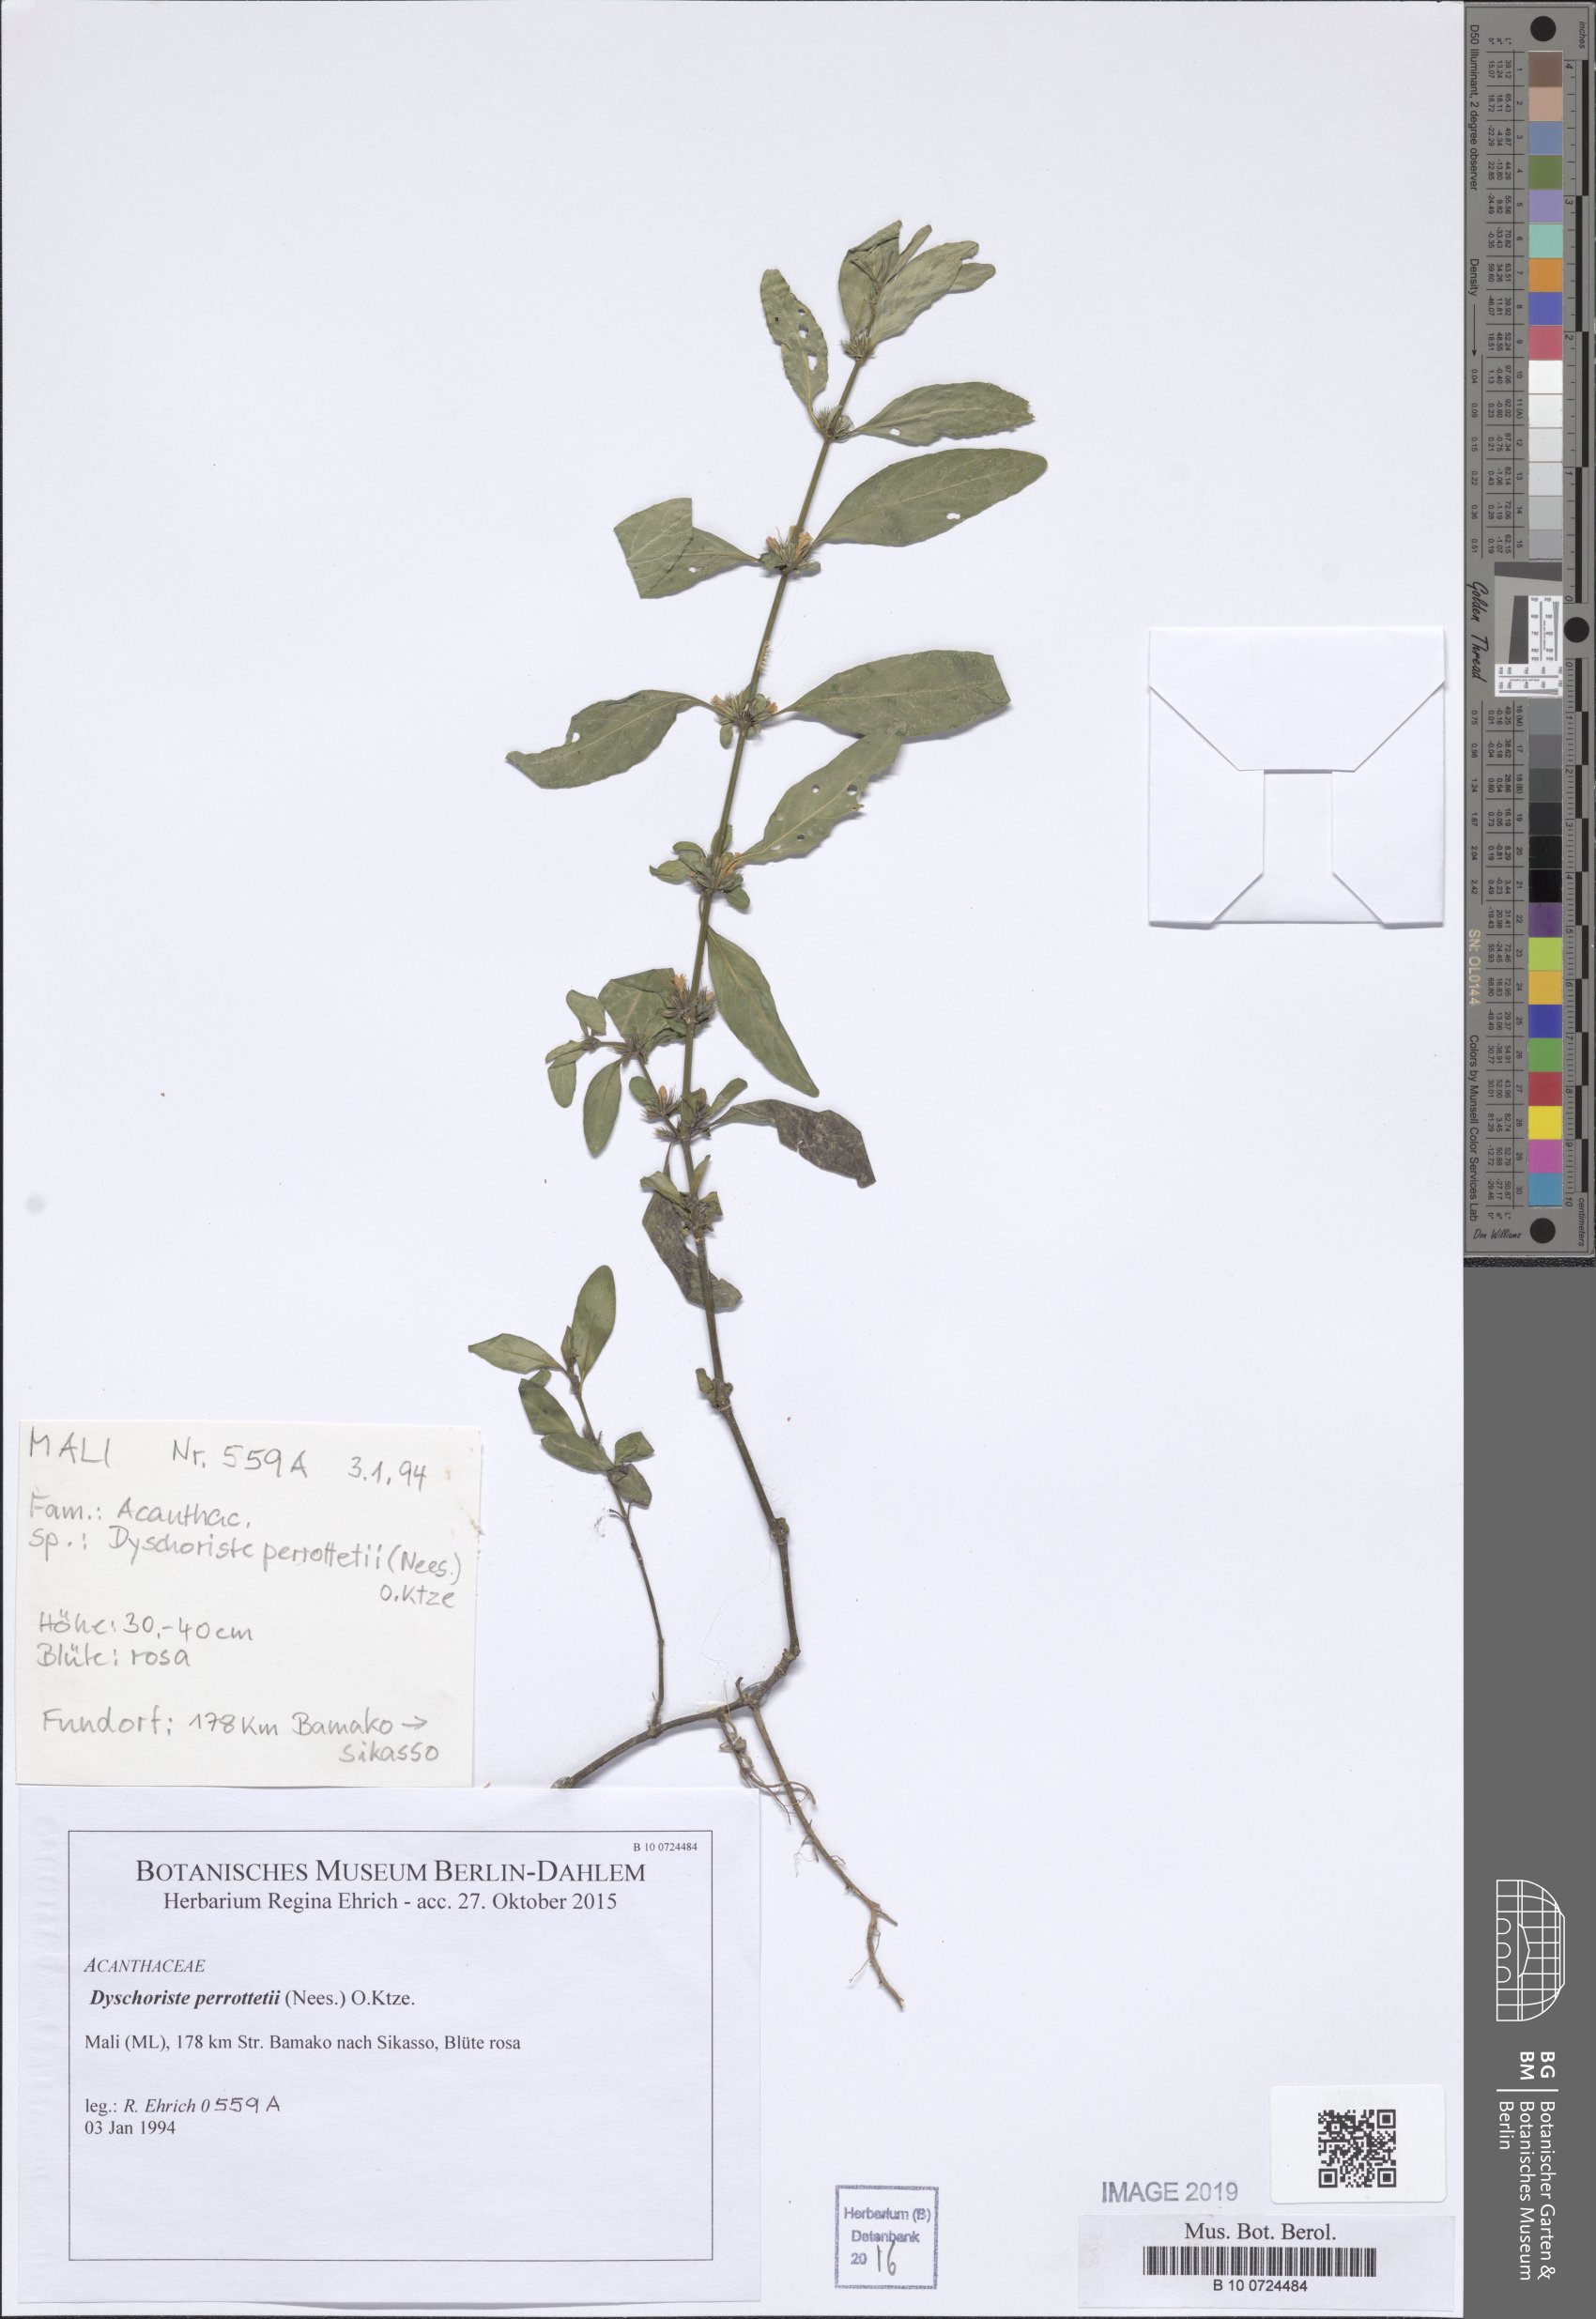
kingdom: Plantae
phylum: Tracheophyta
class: Magnoliopsida
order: Lamiales
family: Acanthaceae
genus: Dyschoriste
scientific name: Dyschoriste nagchana
